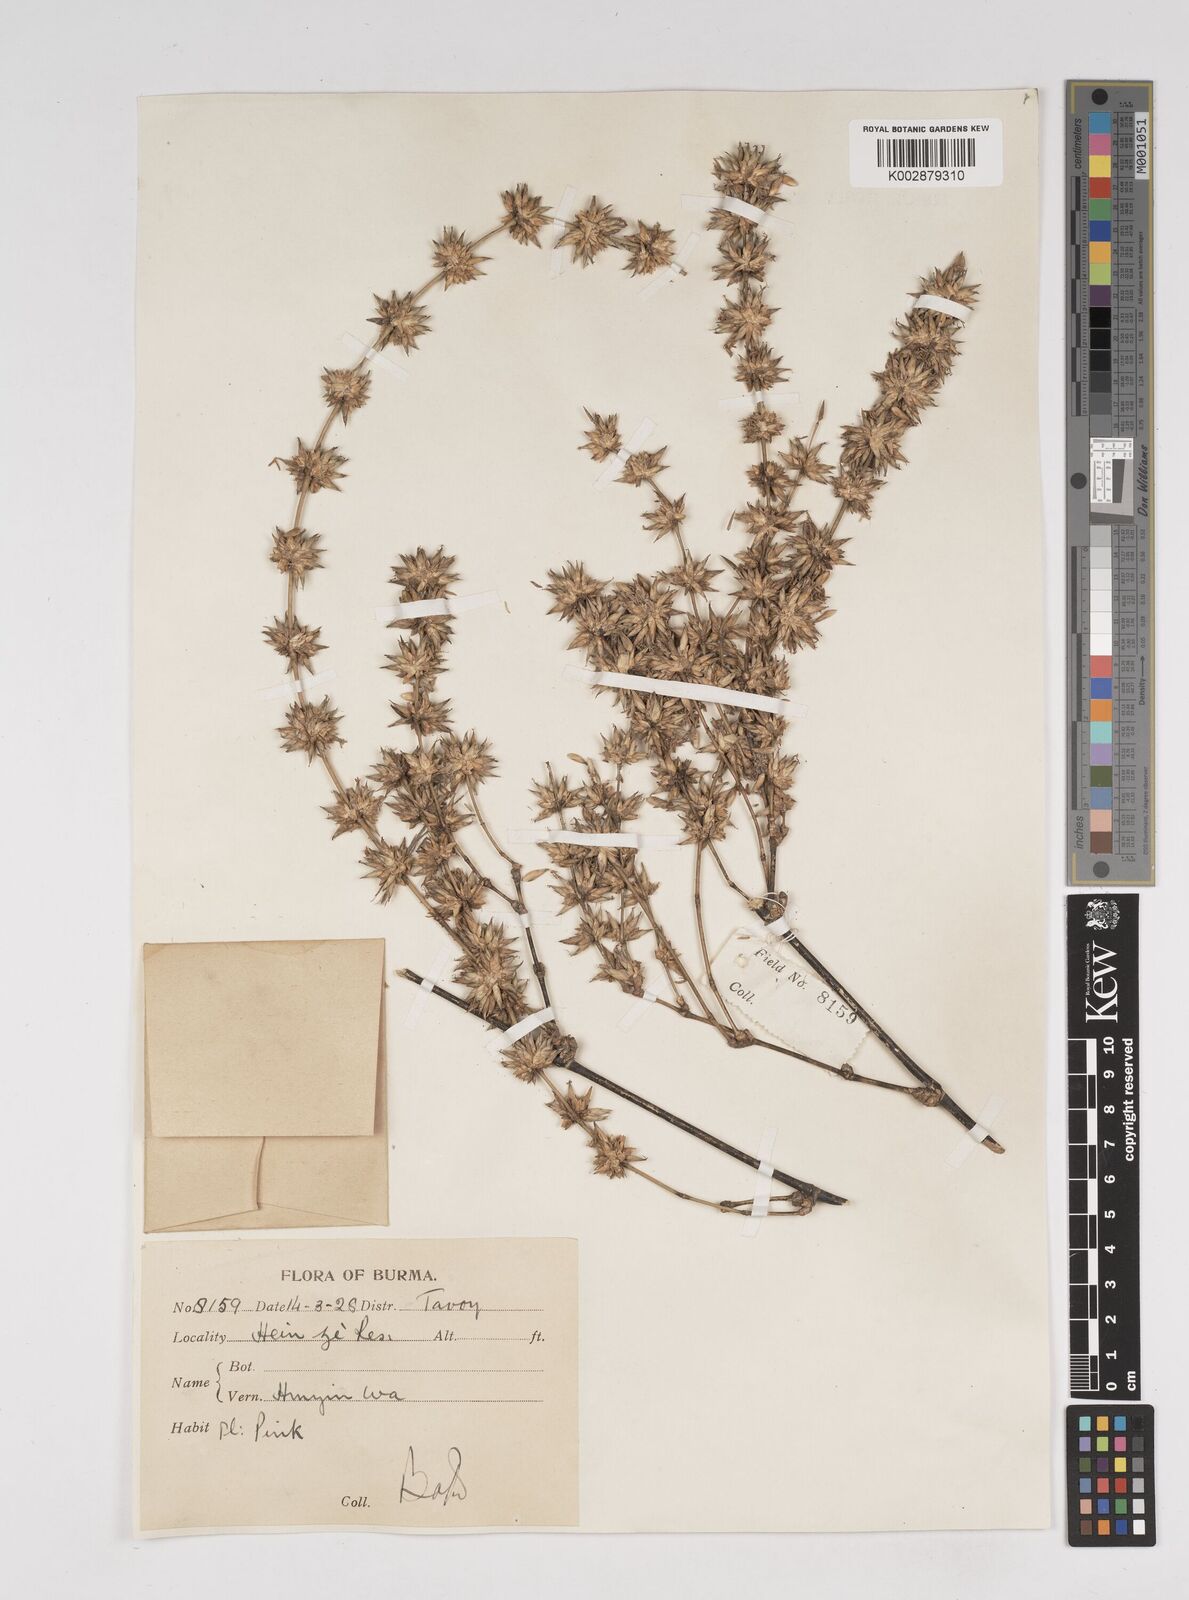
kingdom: Plantae
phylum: Tracheophyta
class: Liliopsida
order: Poales
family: Poaceae
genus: Dendrocalamus
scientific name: Dendrocalamus
